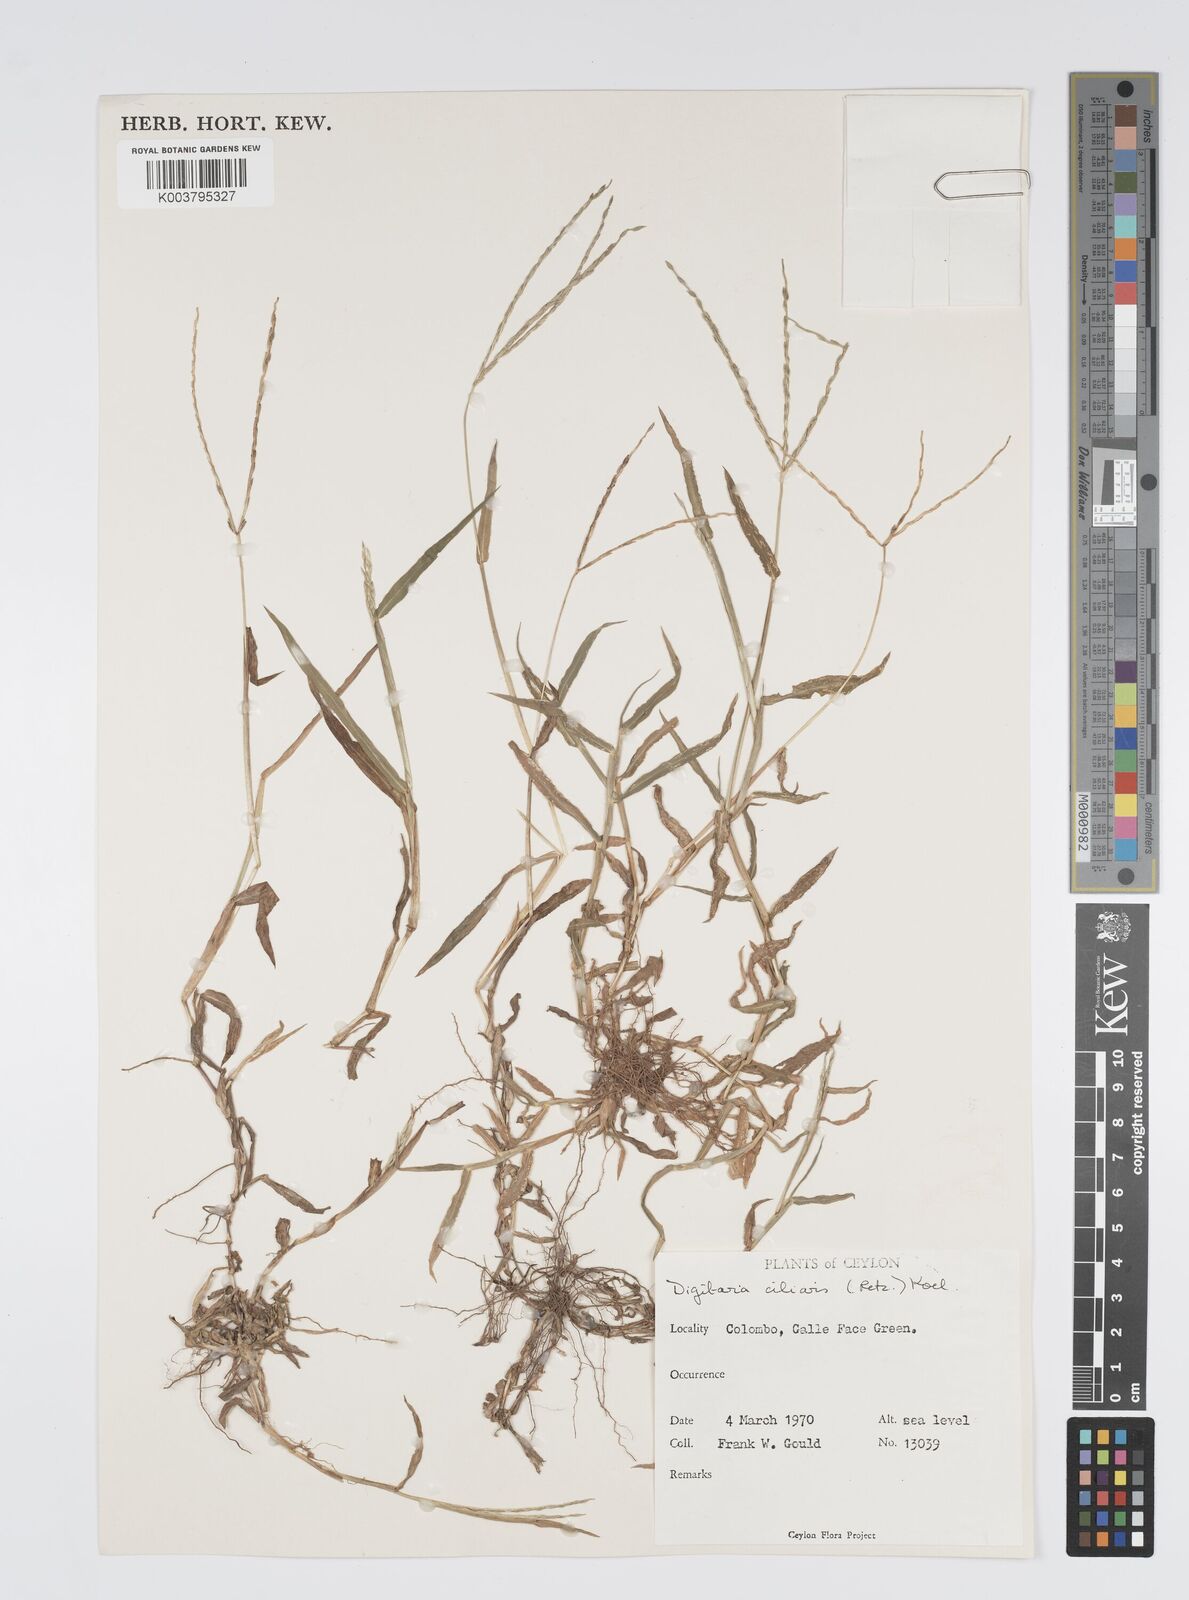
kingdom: Plantae
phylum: Tracheophyta
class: Liliopsida
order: Poales
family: Poaceae
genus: Digitaria
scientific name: Digitaria ciliaris
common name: Tropical finger-grass
